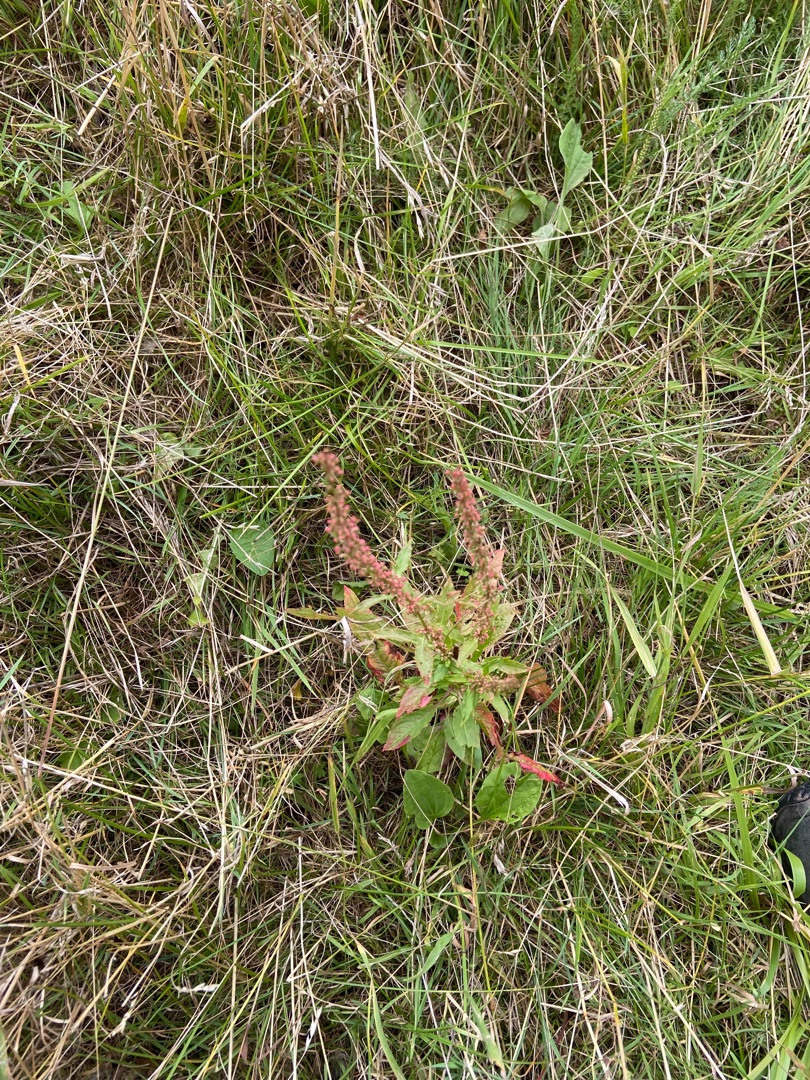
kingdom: Plantae
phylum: Tracheophyta
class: Magnoliopsida
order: Caryophyllales
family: Polygonaceae
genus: Rumex
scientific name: Rumex sanguineus
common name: Skov-skræppe
